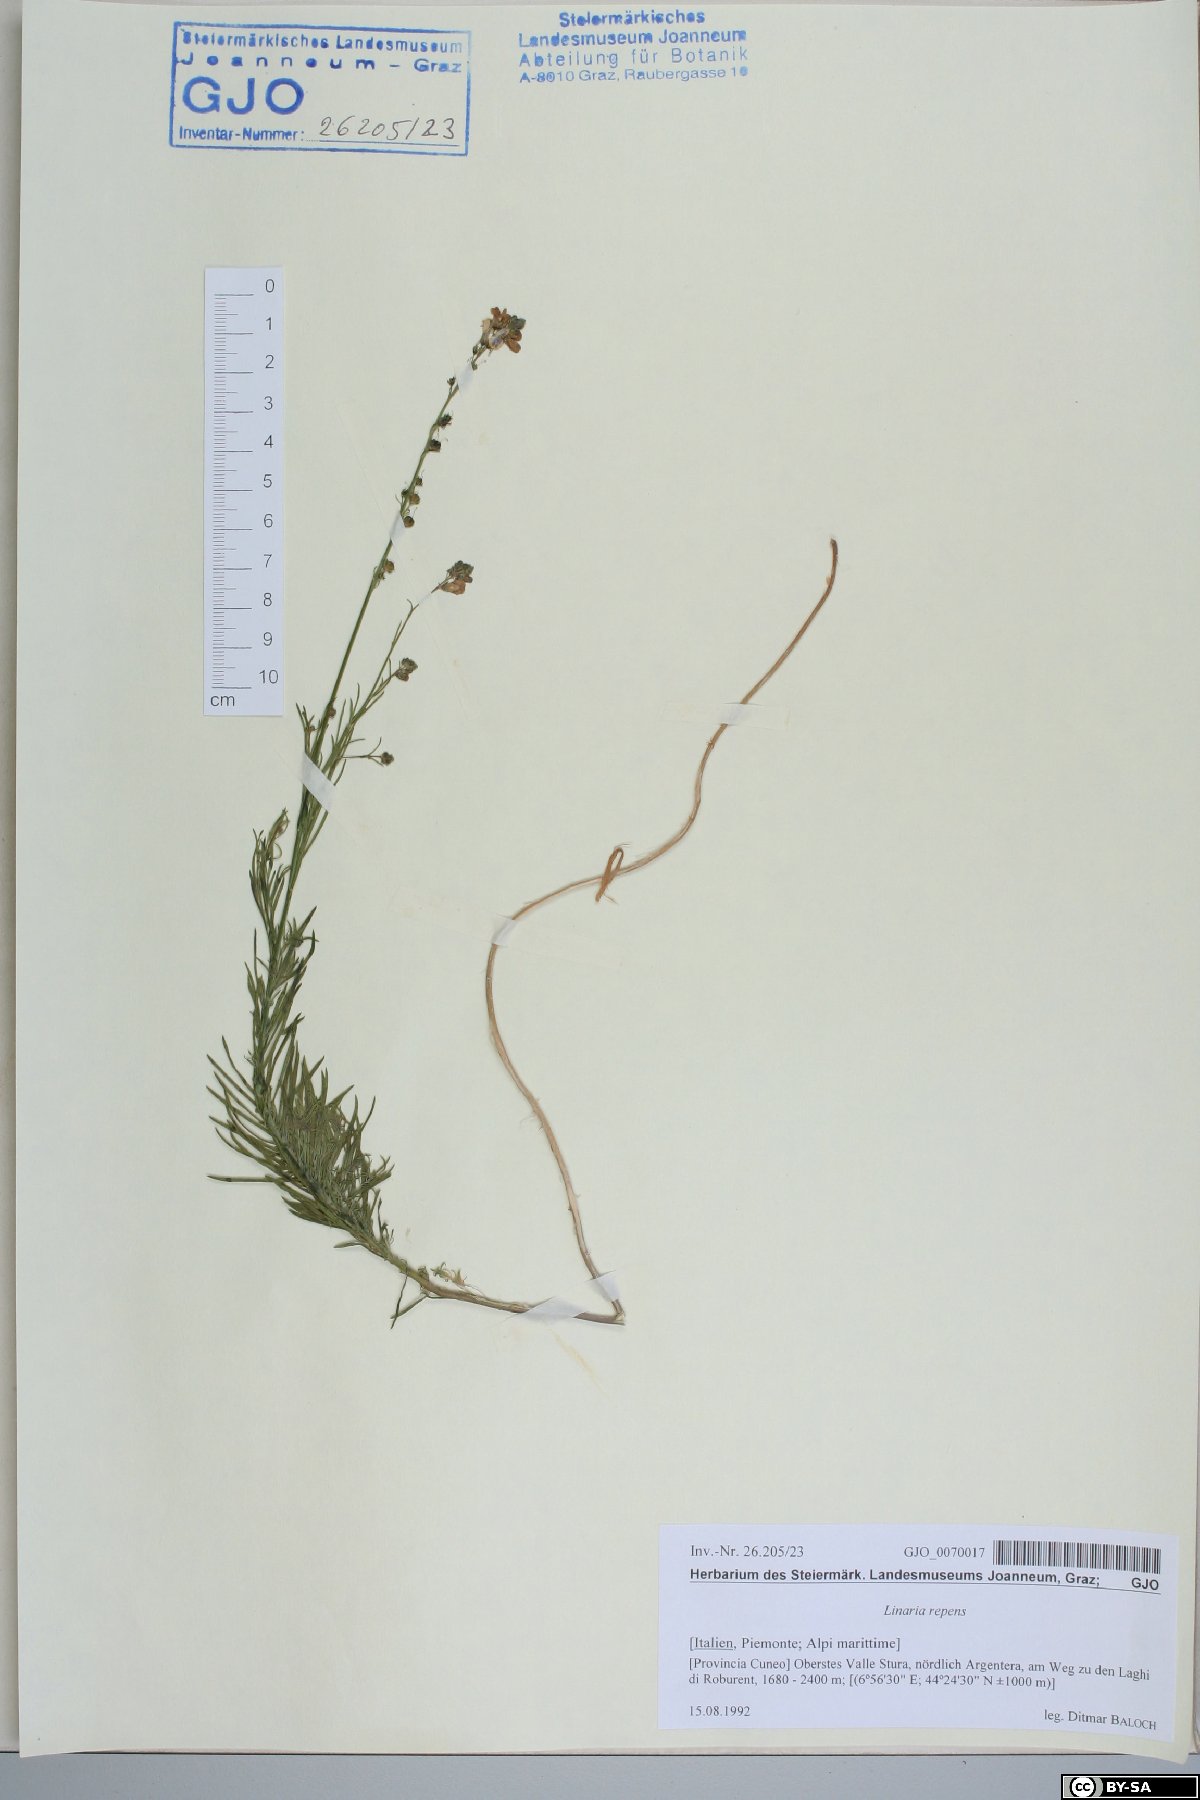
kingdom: Plantae
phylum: Tracheophyta
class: Magnoliopsida
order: Lamiales
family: Plantaginaceae
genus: Linaria
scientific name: Linaria repens
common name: Pale toadflax
